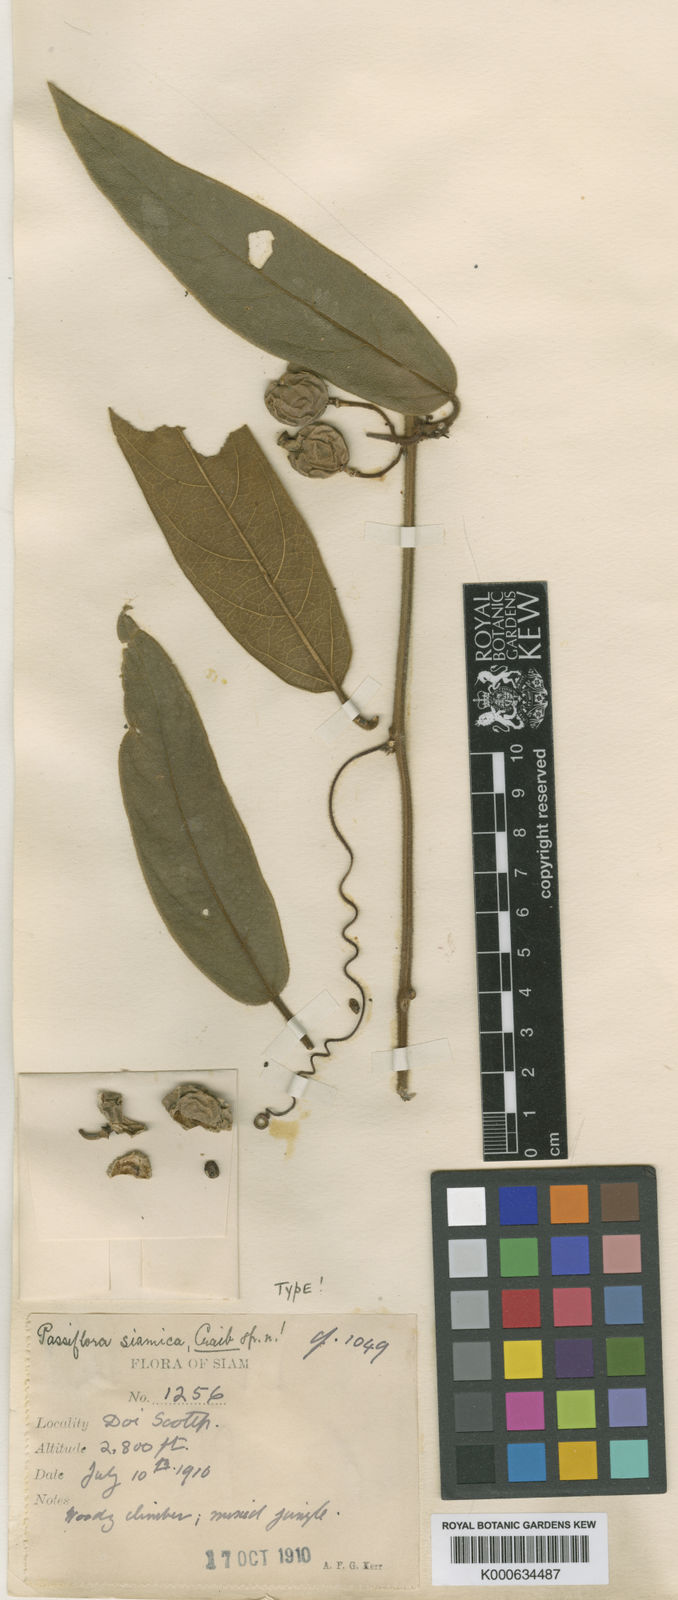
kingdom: Plantae
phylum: Tracheophyta
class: Magnoliopsida
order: Malpighiales
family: Passifloraceae
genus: Passiflora
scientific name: Passiflora siamica
